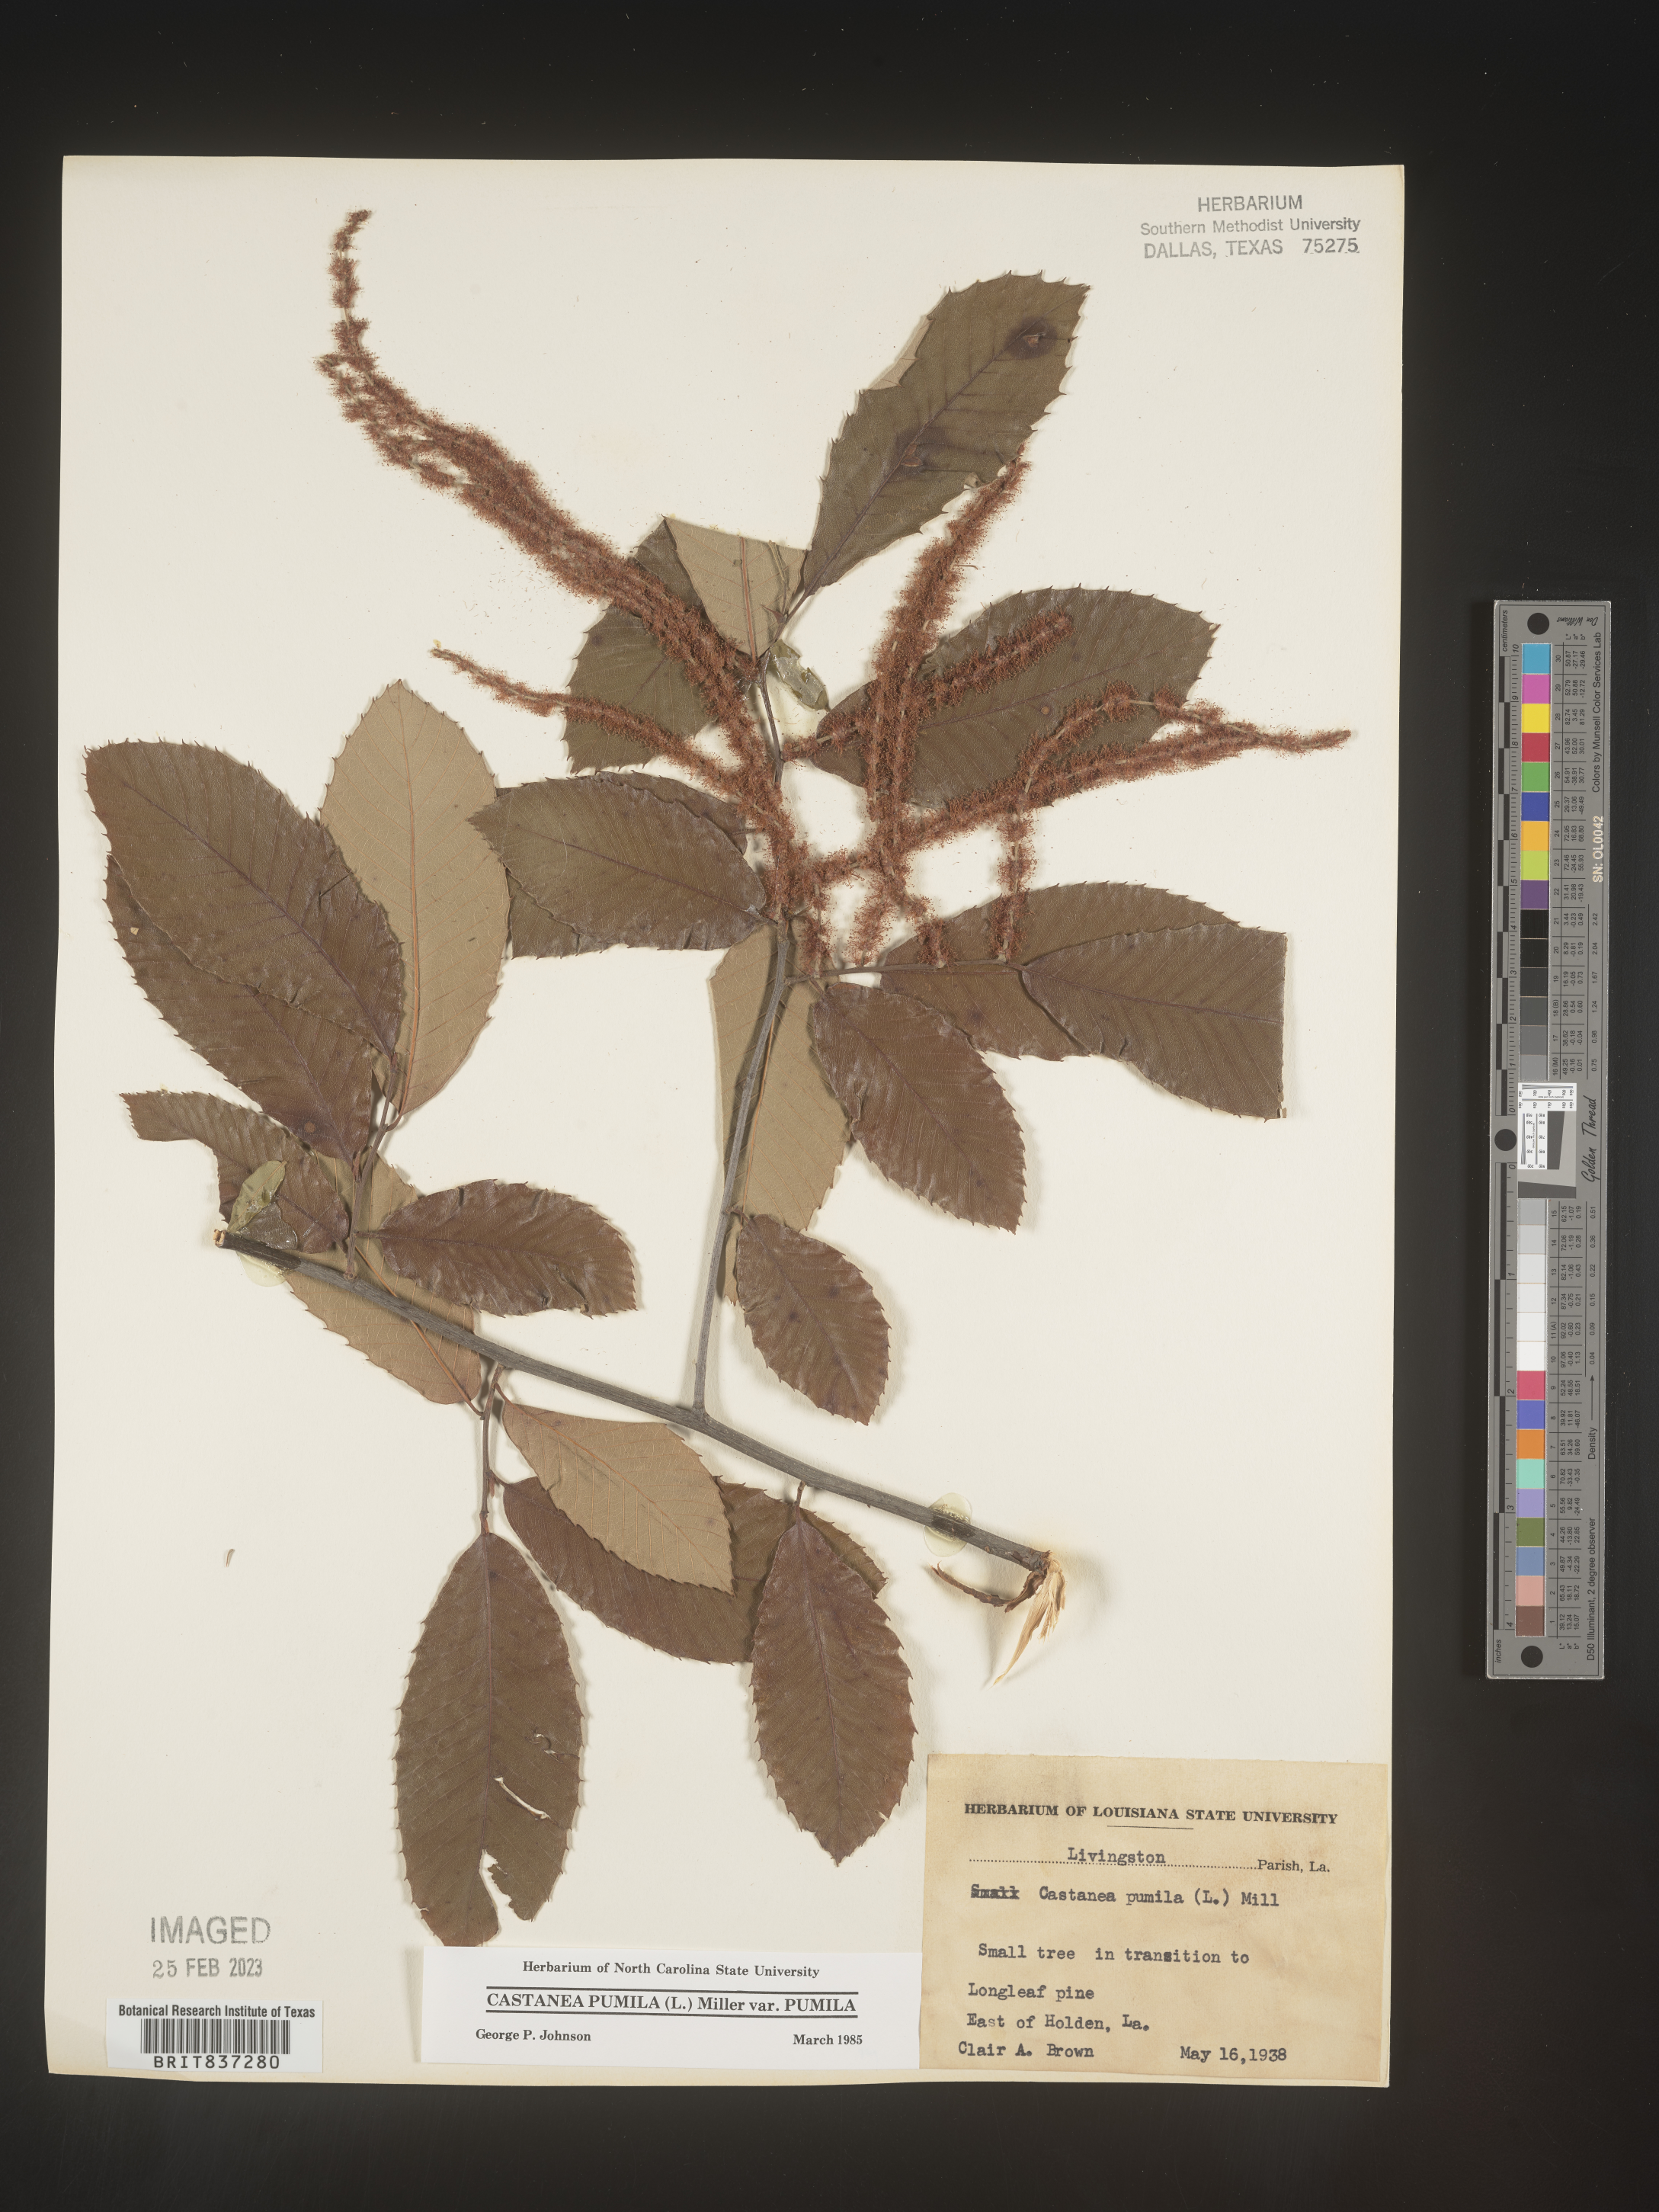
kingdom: Plantae
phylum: Tracheophyta
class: Magnoliopsida
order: Fagales
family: Fagaceae
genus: Castanea
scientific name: Castanea pumila
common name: Chinkapin
